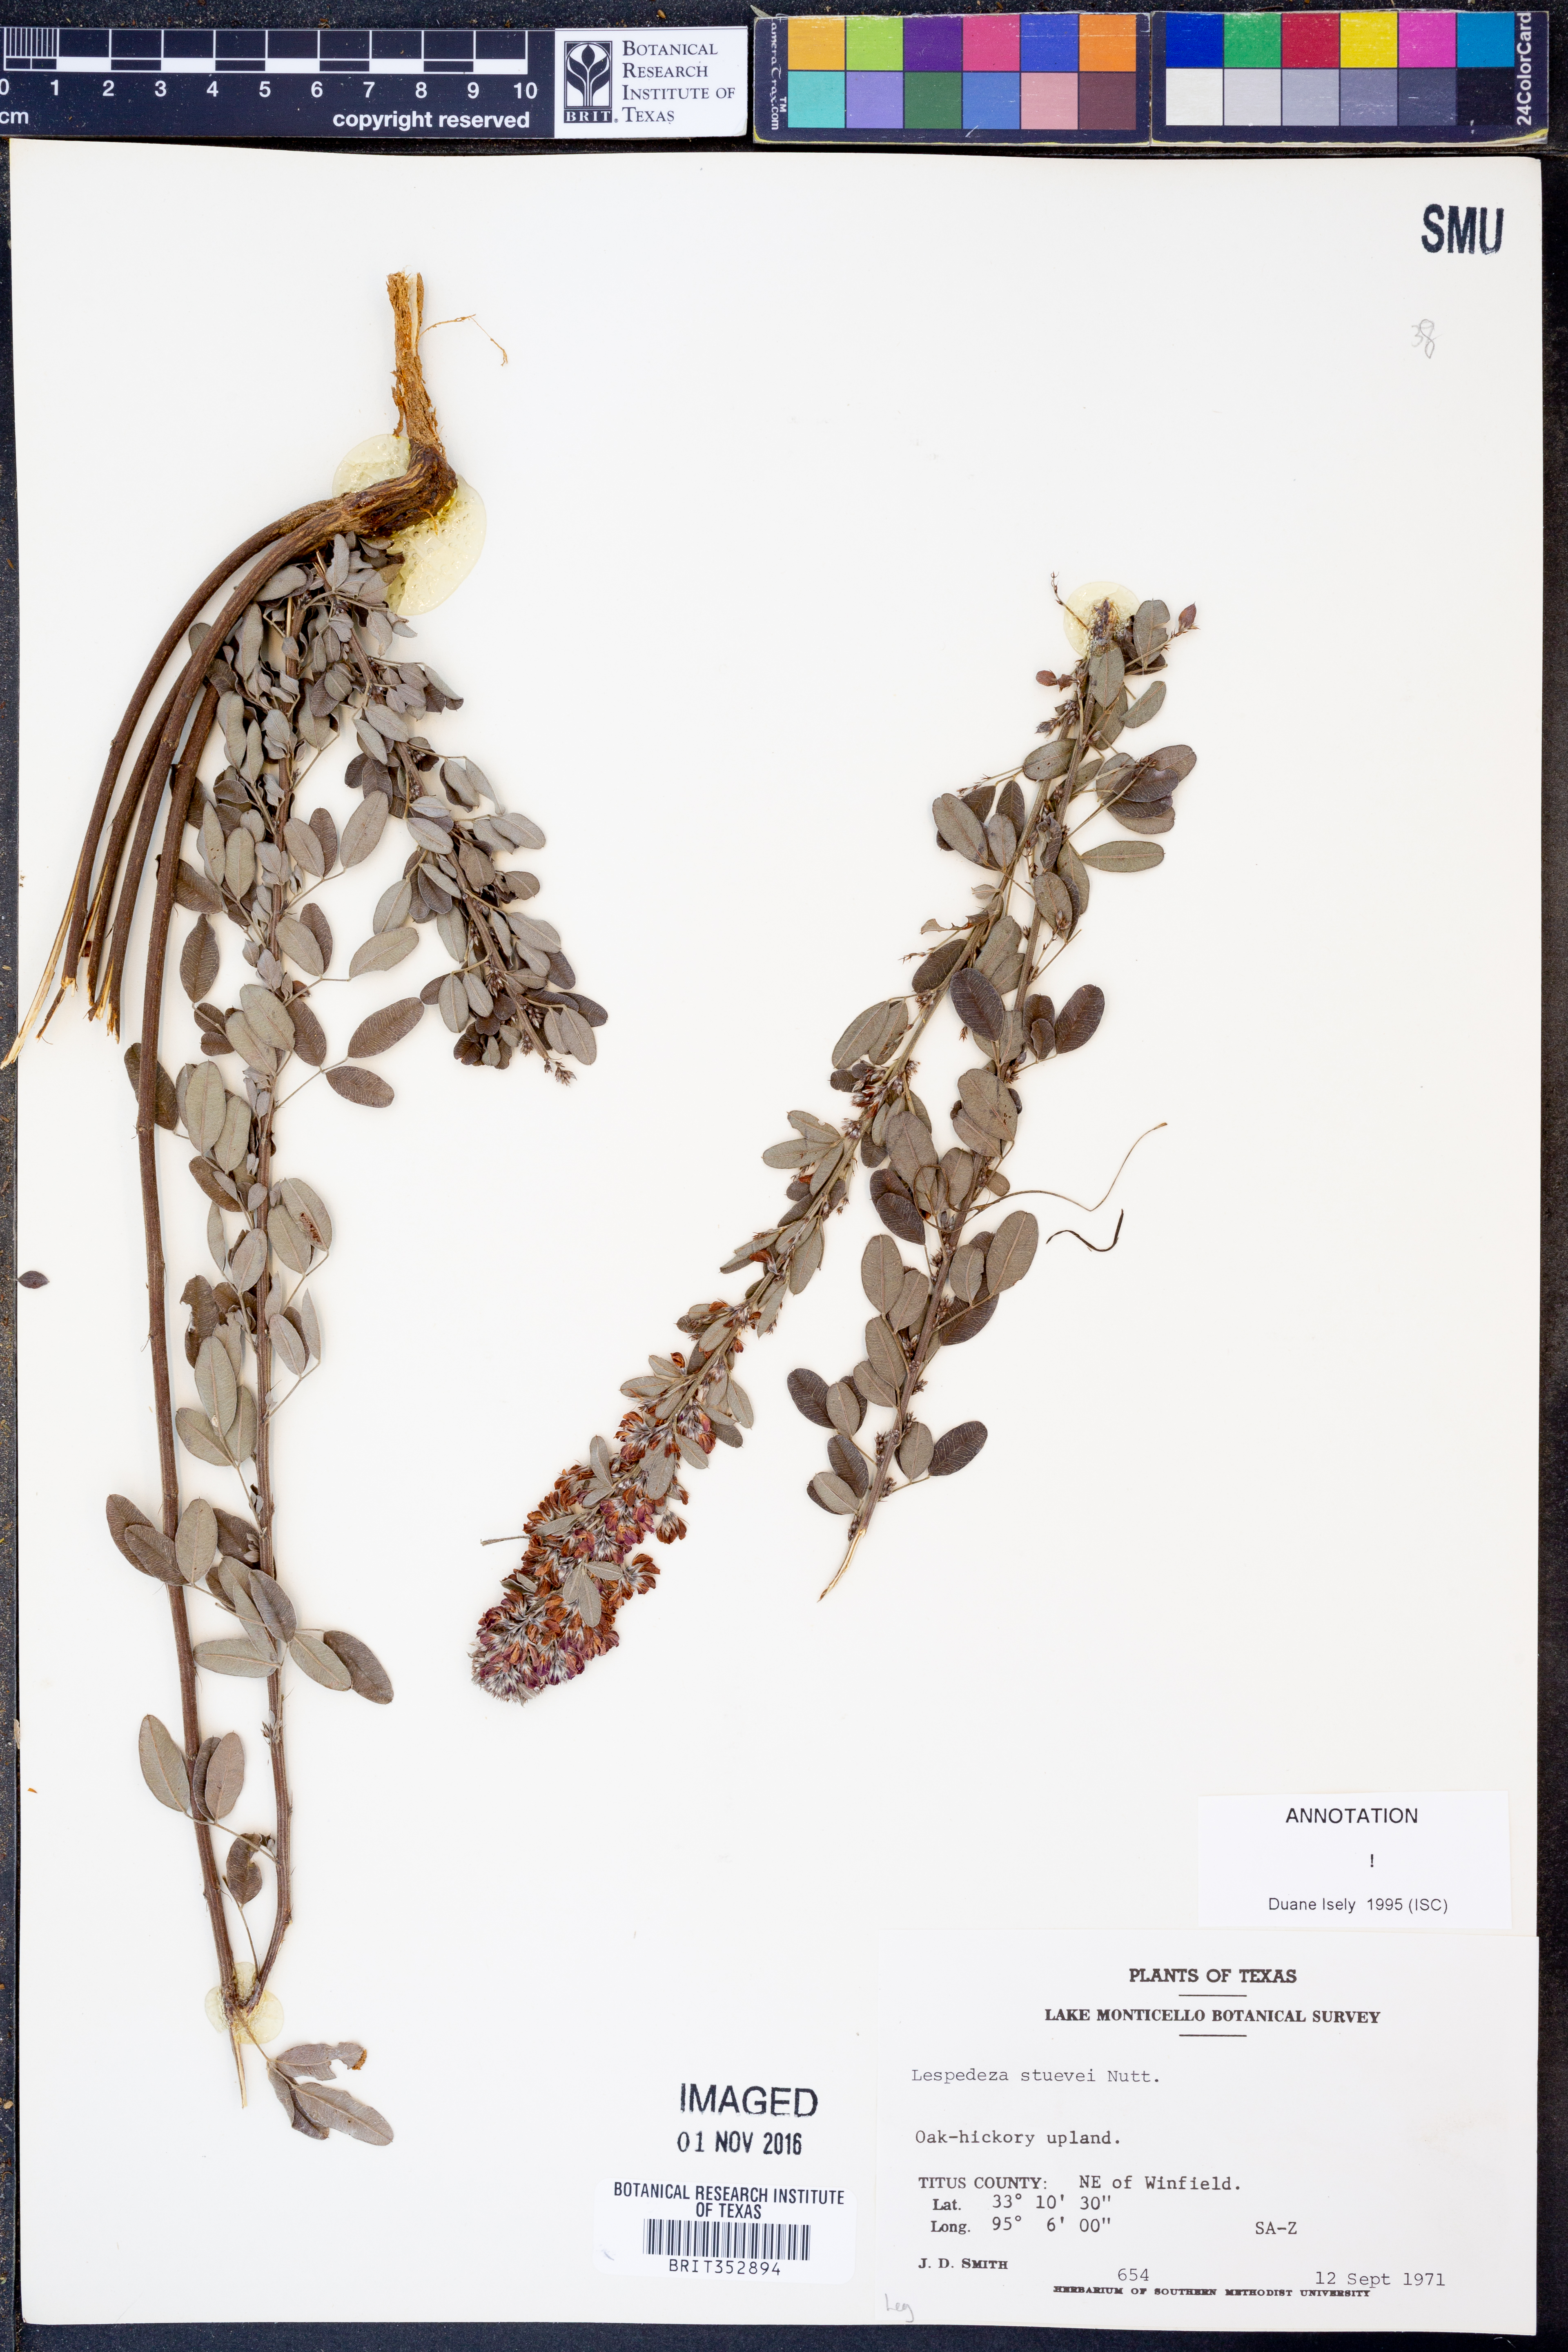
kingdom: Plantae
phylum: Tracheophyta
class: Magnoliopsida
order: Fabales
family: Fabaceae
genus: Lespedeza
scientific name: Lespedeza stuevei
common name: Tall bush-clover
